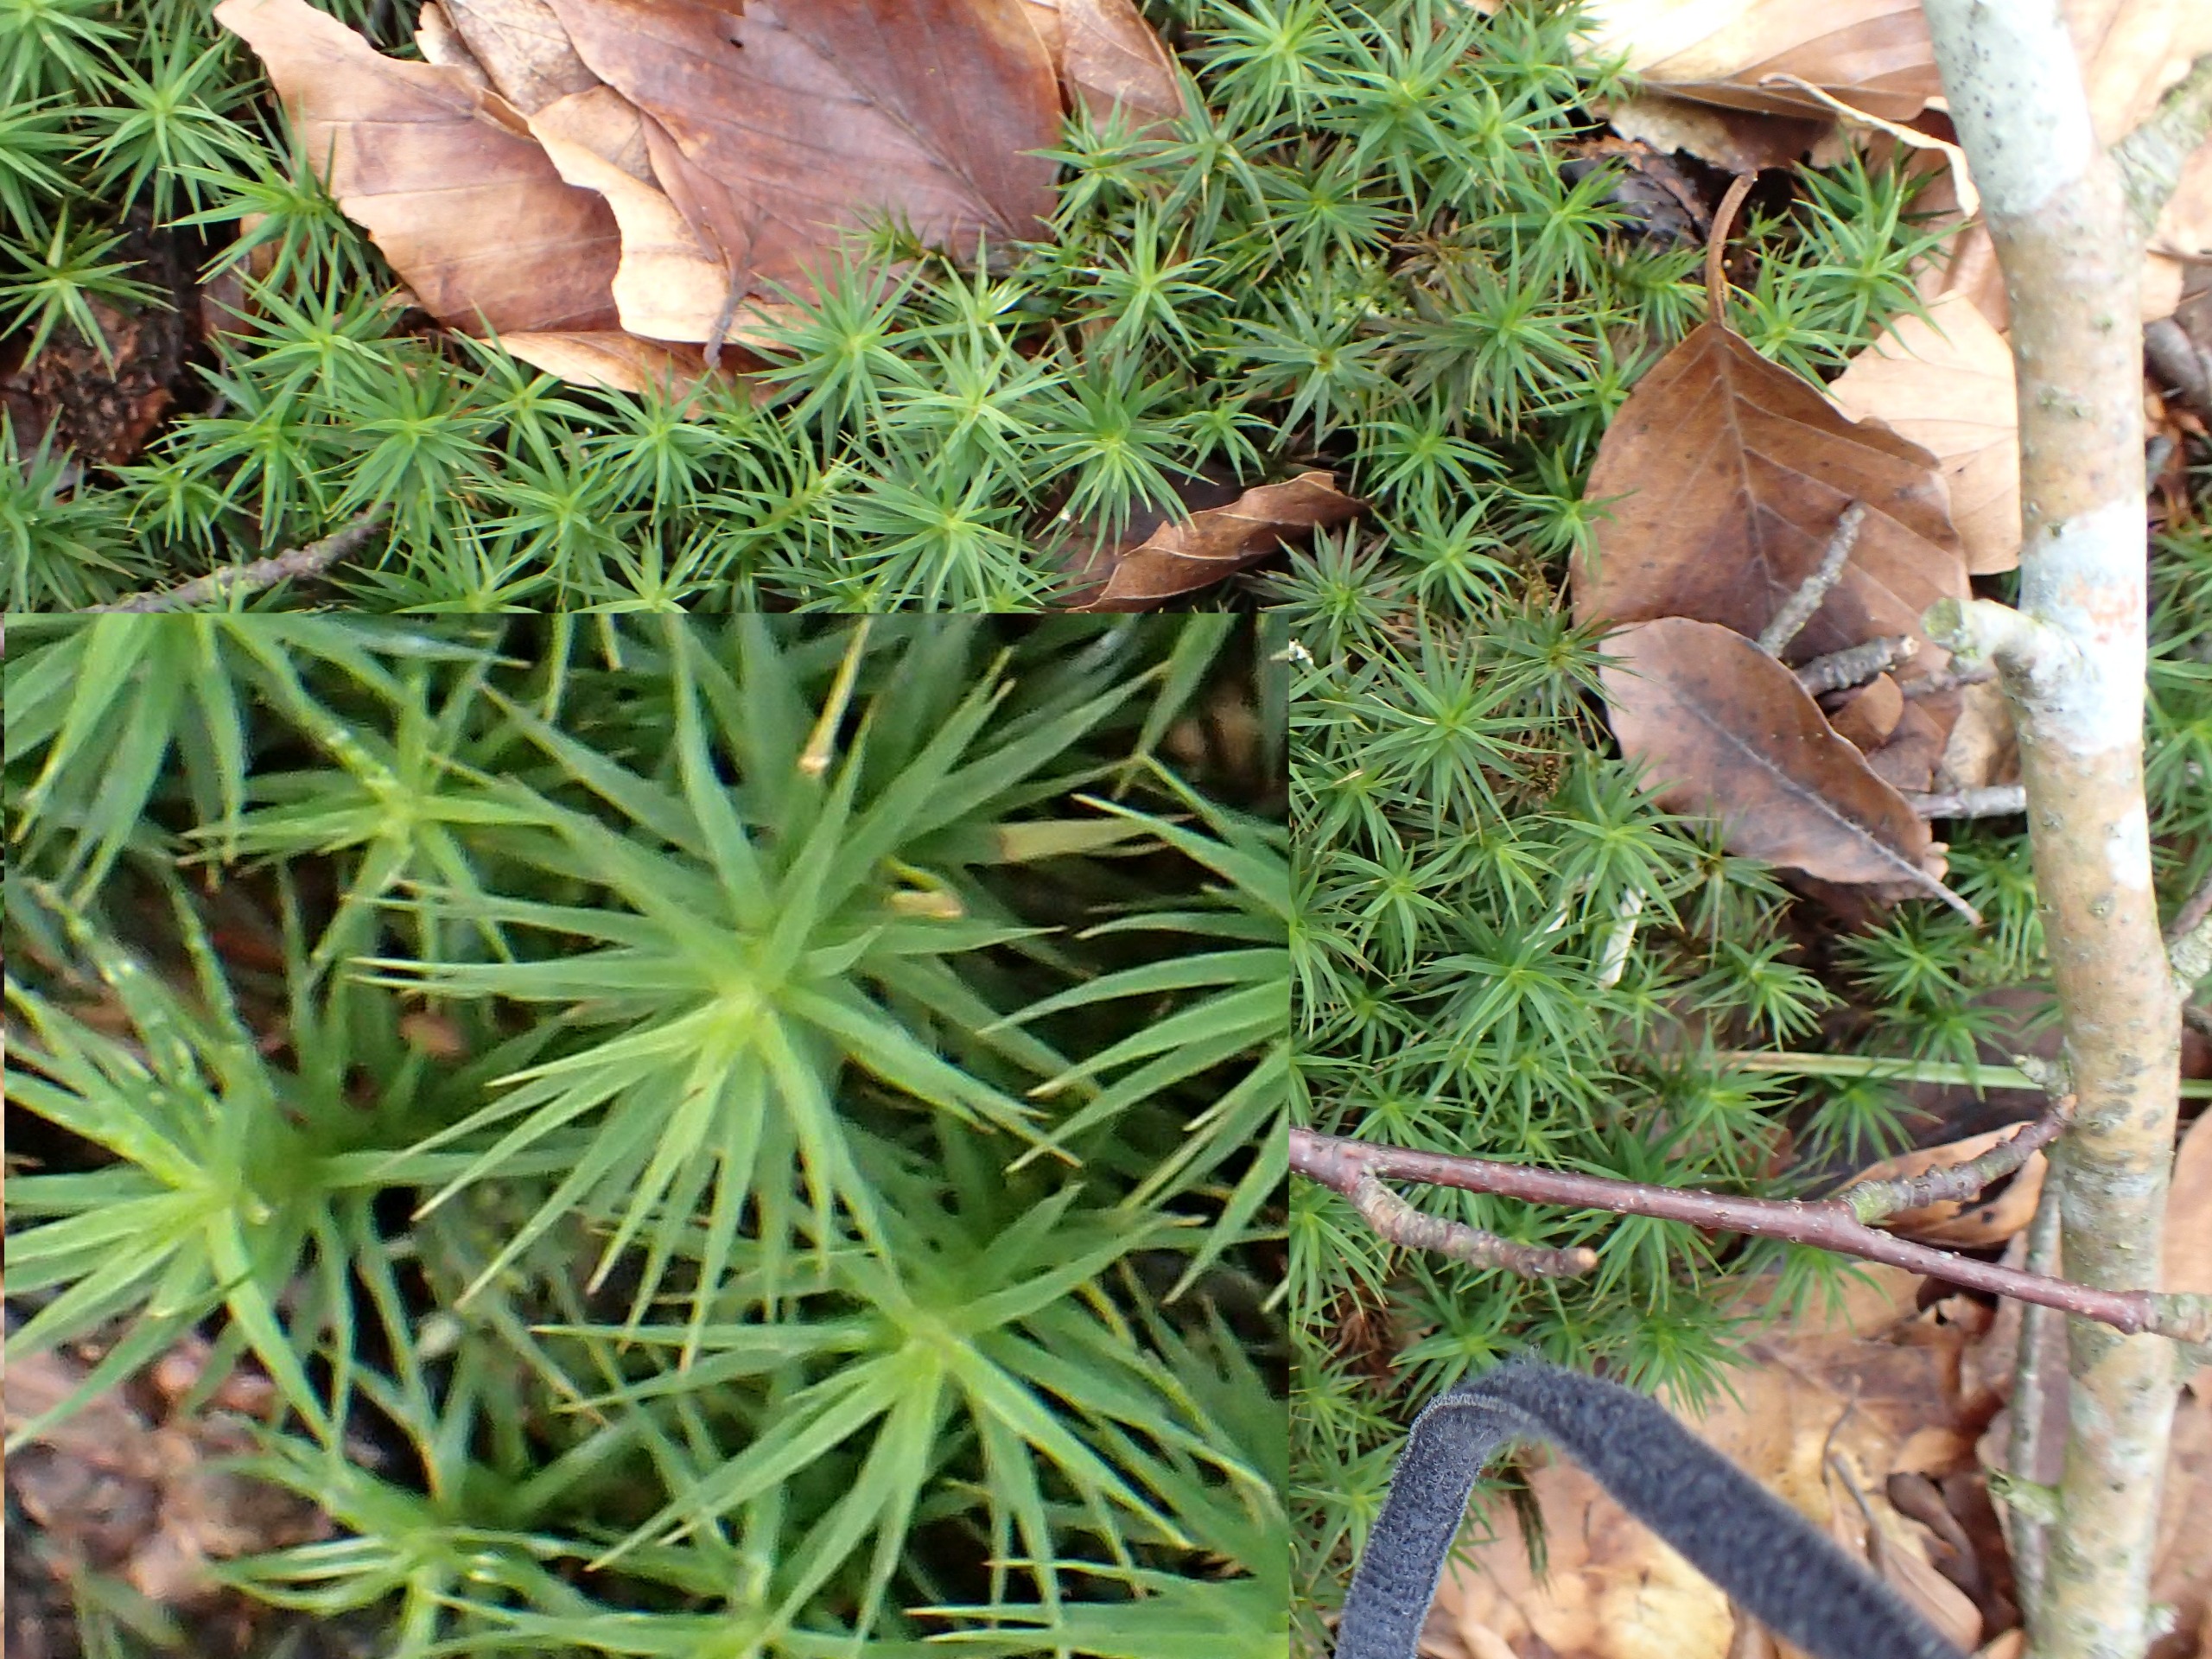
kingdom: Plantae
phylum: Bryophyta
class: Polytrichopsida
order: Polytrichales
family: Polytrichaceae
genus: Polytrichum
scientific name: Polytrichum formosum
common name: Skov-jomfruhår
